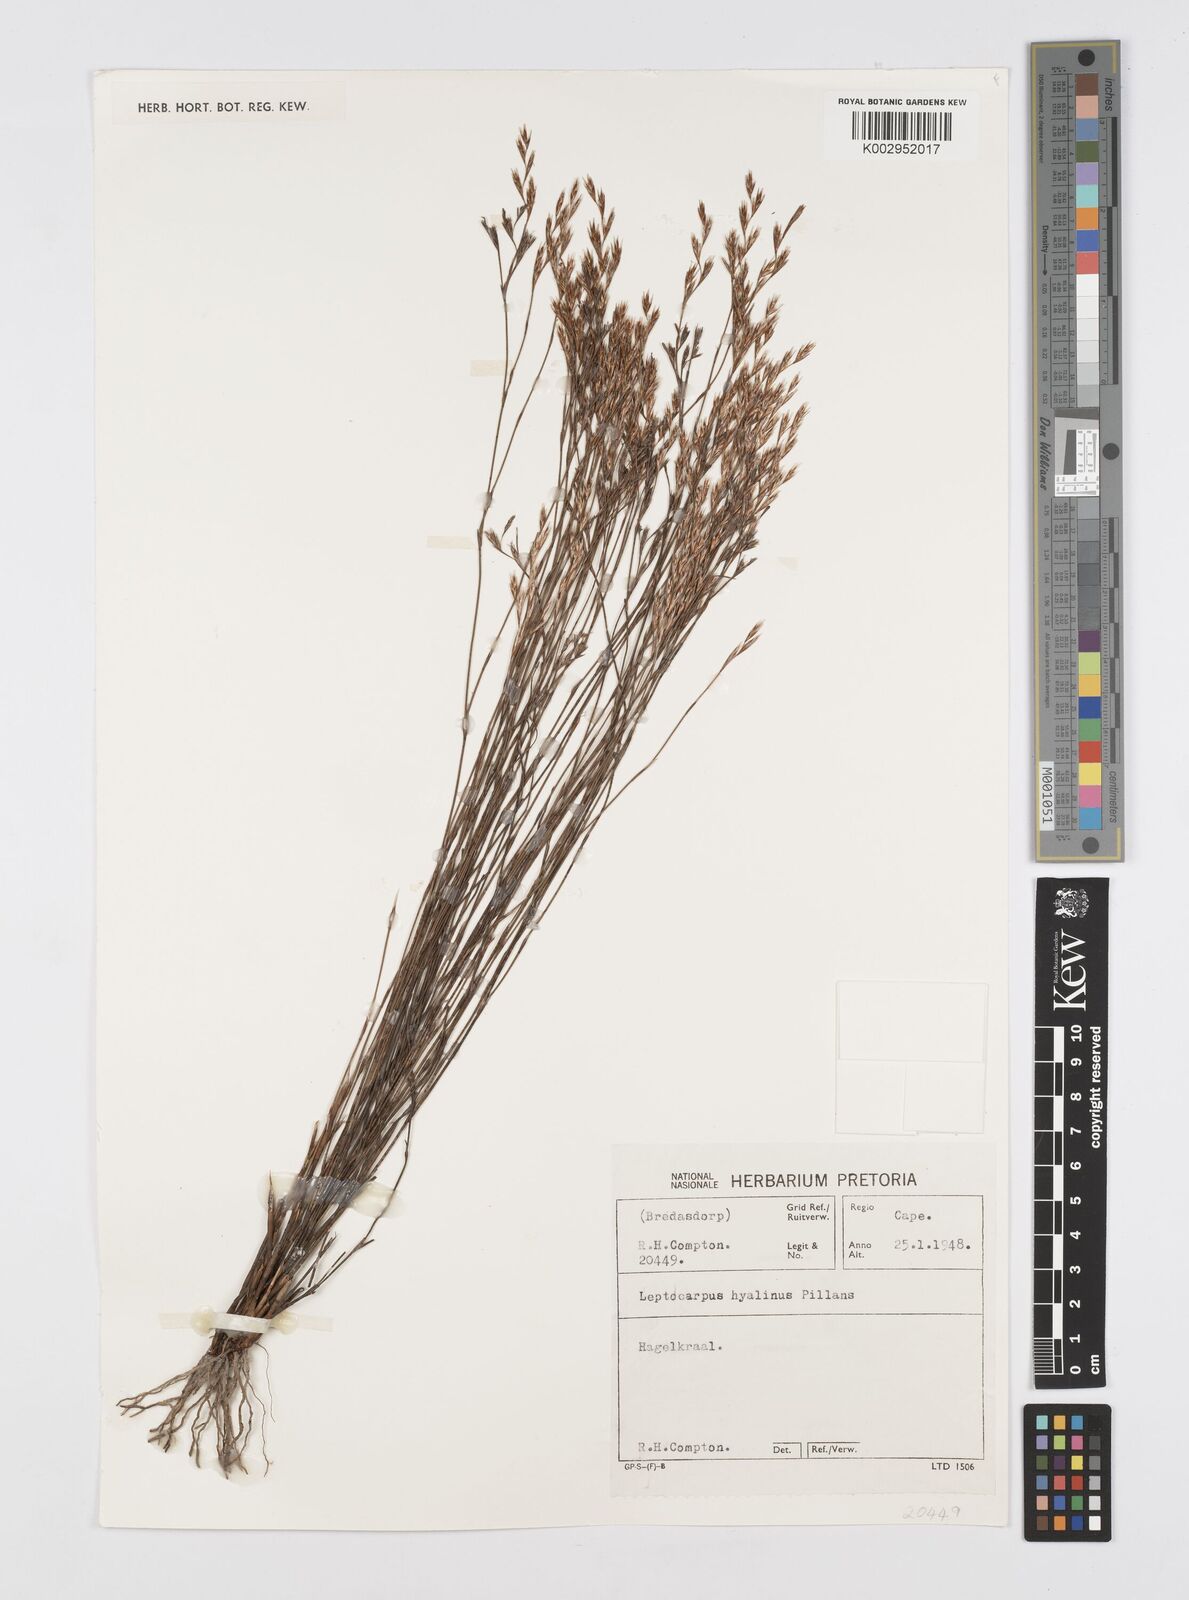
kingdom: Plantae
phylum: Tracheophyta
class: Liliopsida
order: Poales
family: Restionaceae
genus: Restio
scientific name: Restio hyalinus
